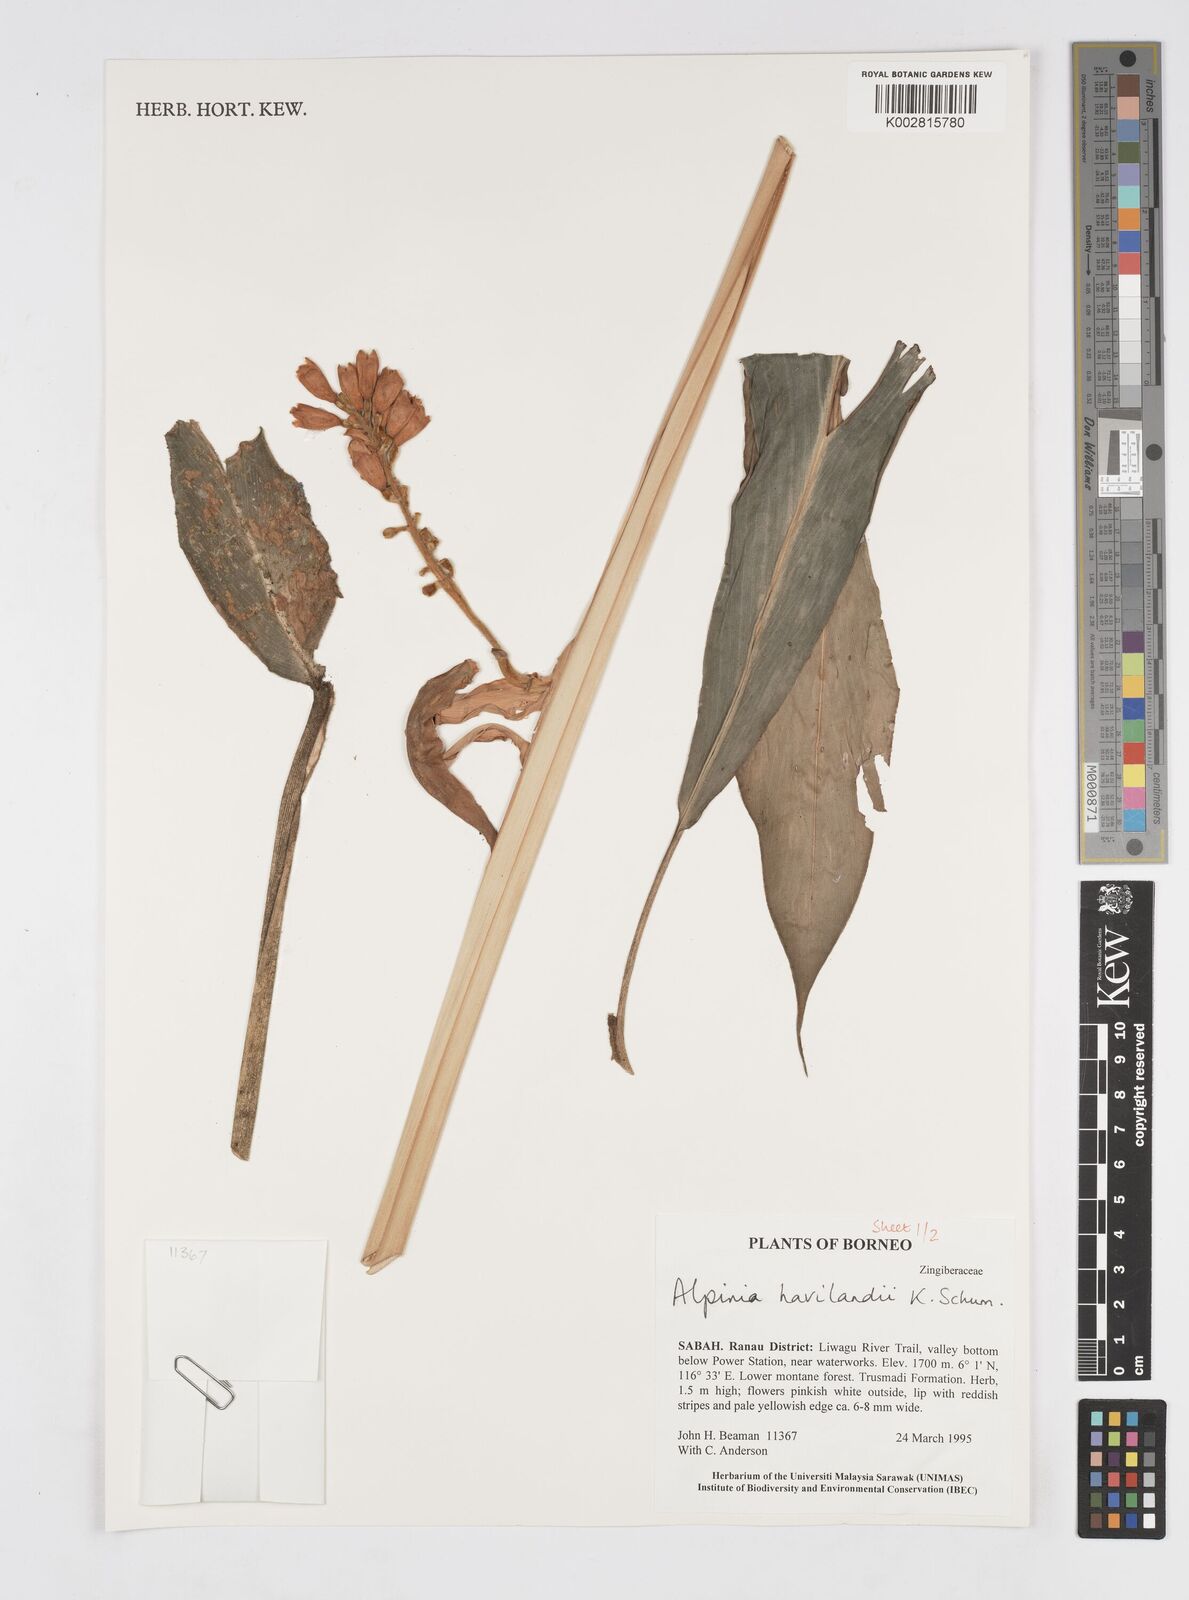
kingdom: Plantae
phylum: Tracheophyta
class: Liliopsida
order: Zingiberales
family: Zingiberaceae
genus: Alpinia
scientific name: Alpinia havilandii
